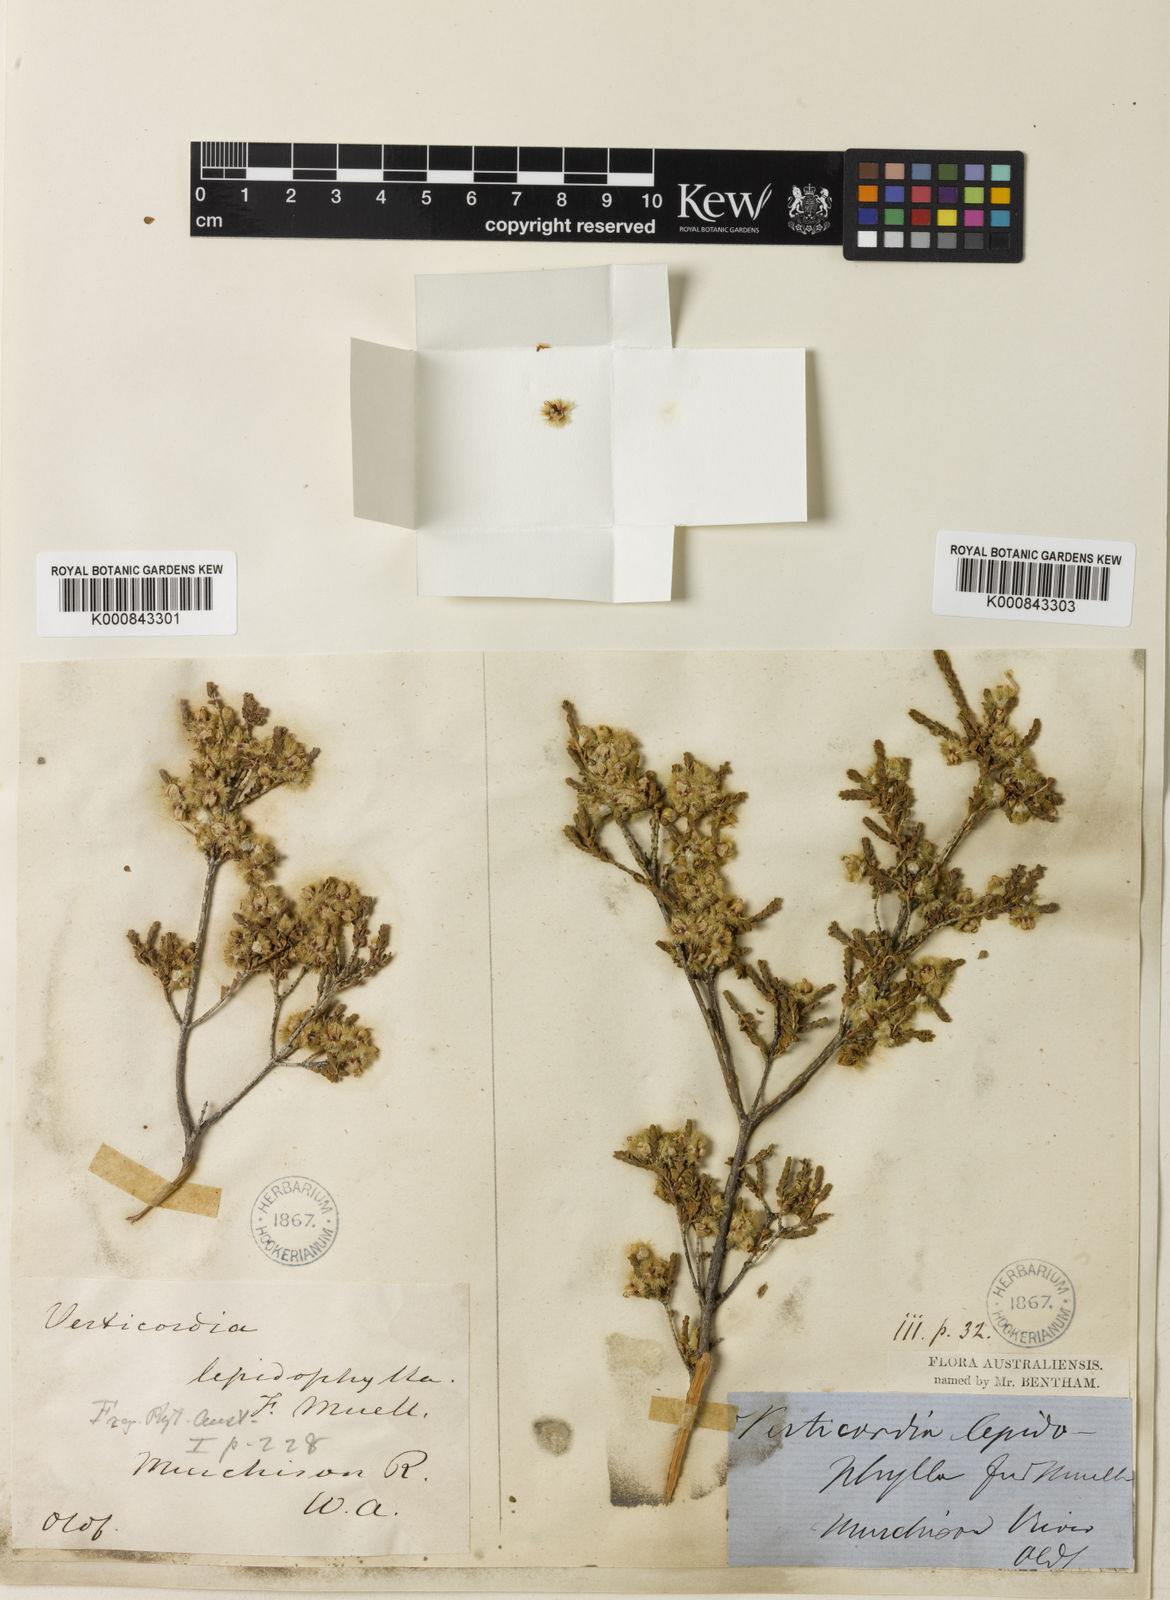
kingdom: Plantae
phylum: Tracheophyta
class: Magnoliopsida
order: Myrtales
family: Myrtaceae
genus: Verticordia
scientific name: Verticordia lepidophylla
